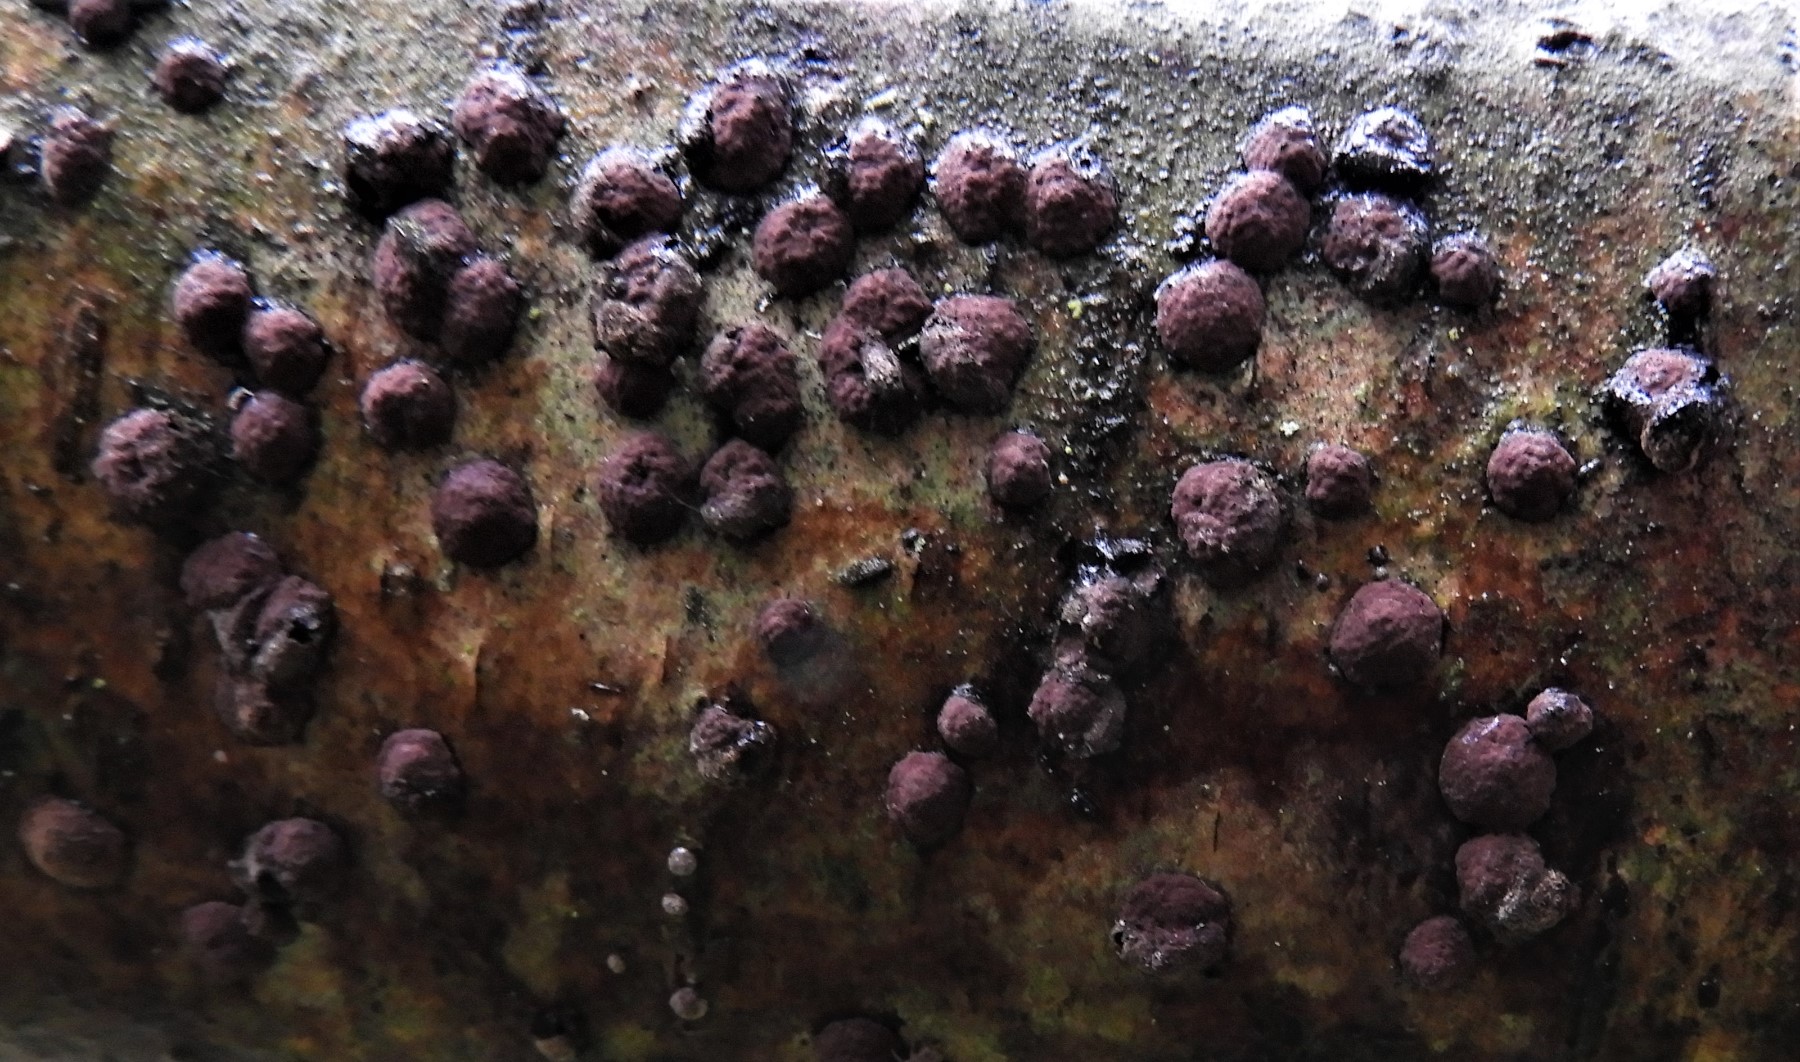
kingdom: Fungi
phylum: Ascomycota
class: Sordariomycetes
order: Xylariales
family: Hypoxylaceae
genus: Hypoxylon
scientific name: Hypoxylon fuscum
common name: kegleformet kulbær
